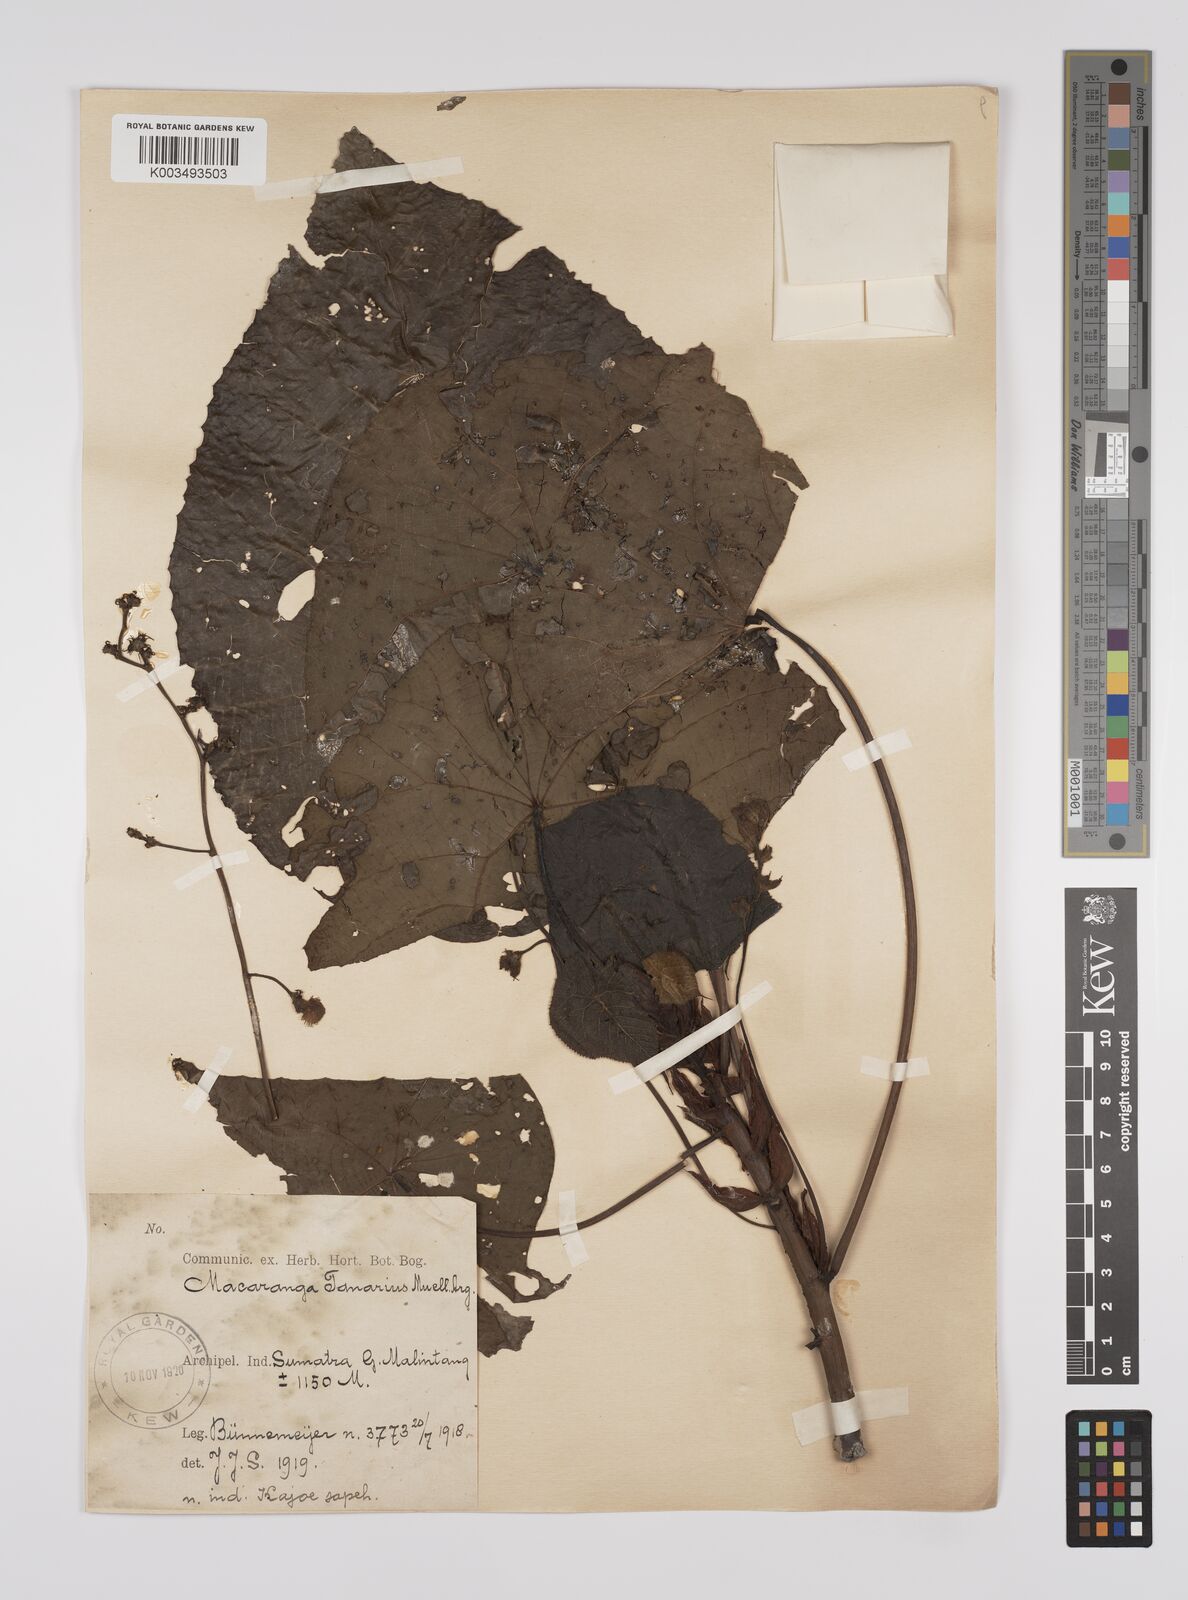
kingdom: Plantae
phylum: Tracheophyta
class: Magnoliopsida
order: Malpighiales
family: Euphorbiaceae
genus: Macaranga
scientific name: Macaranga tanarius
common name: Parasol leaf tree
